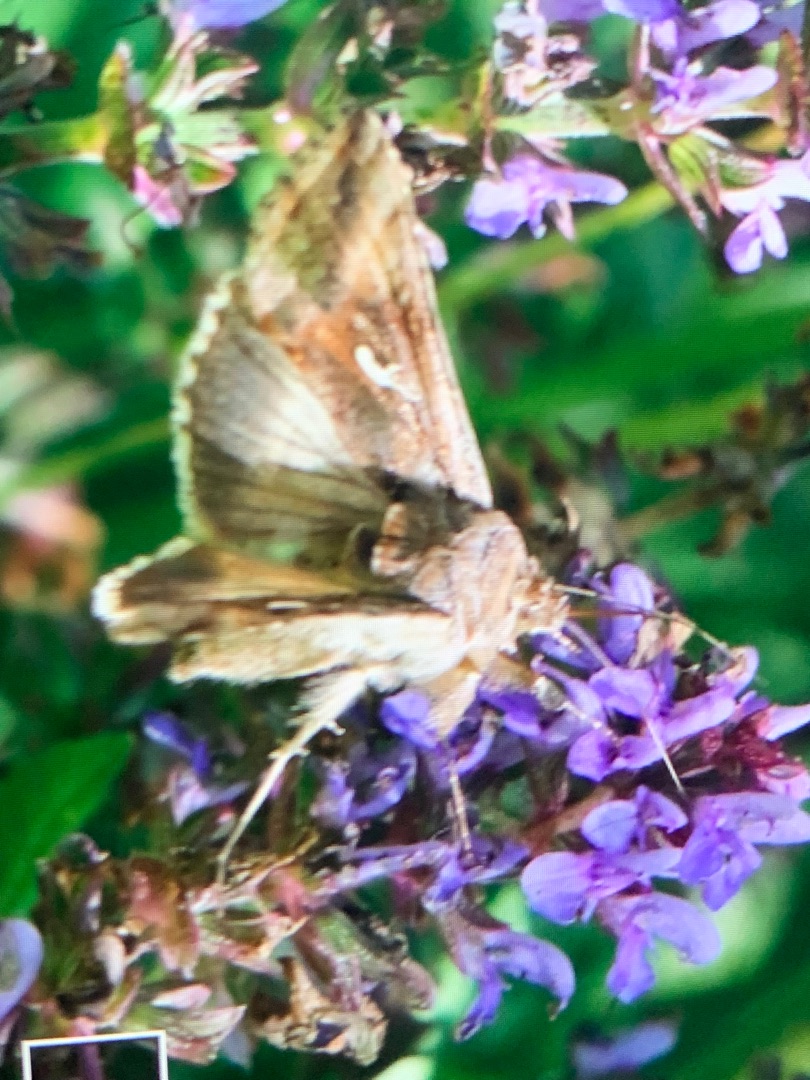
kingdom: Animalia
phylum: Arthropoda
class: Insecta
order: Lepidoptera
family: Noctuidae
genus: Autographa
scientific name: Autographa gamma
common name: Gammaugle
